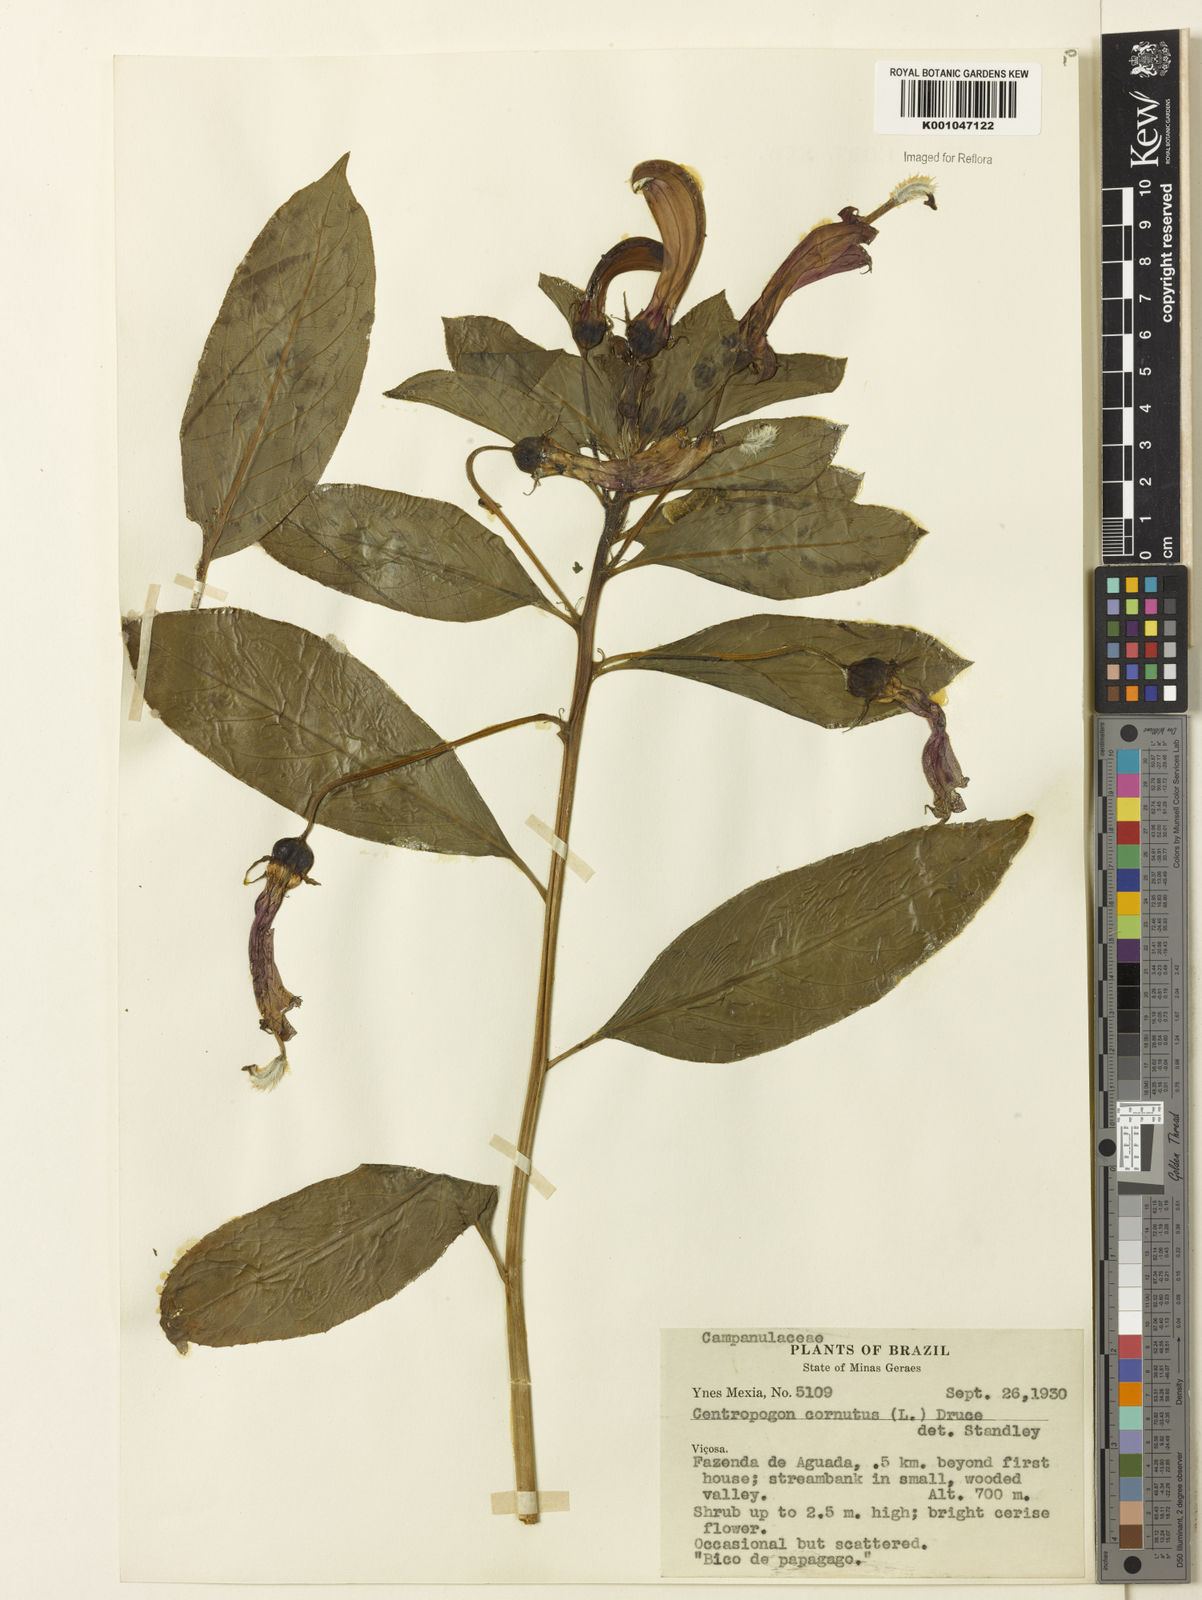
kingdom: Plantae
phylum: Tracheophyta
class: Magnoliopsida
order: Asterales
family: Campanulaceae
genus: Centropogon
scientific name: Centropogon cornutus
